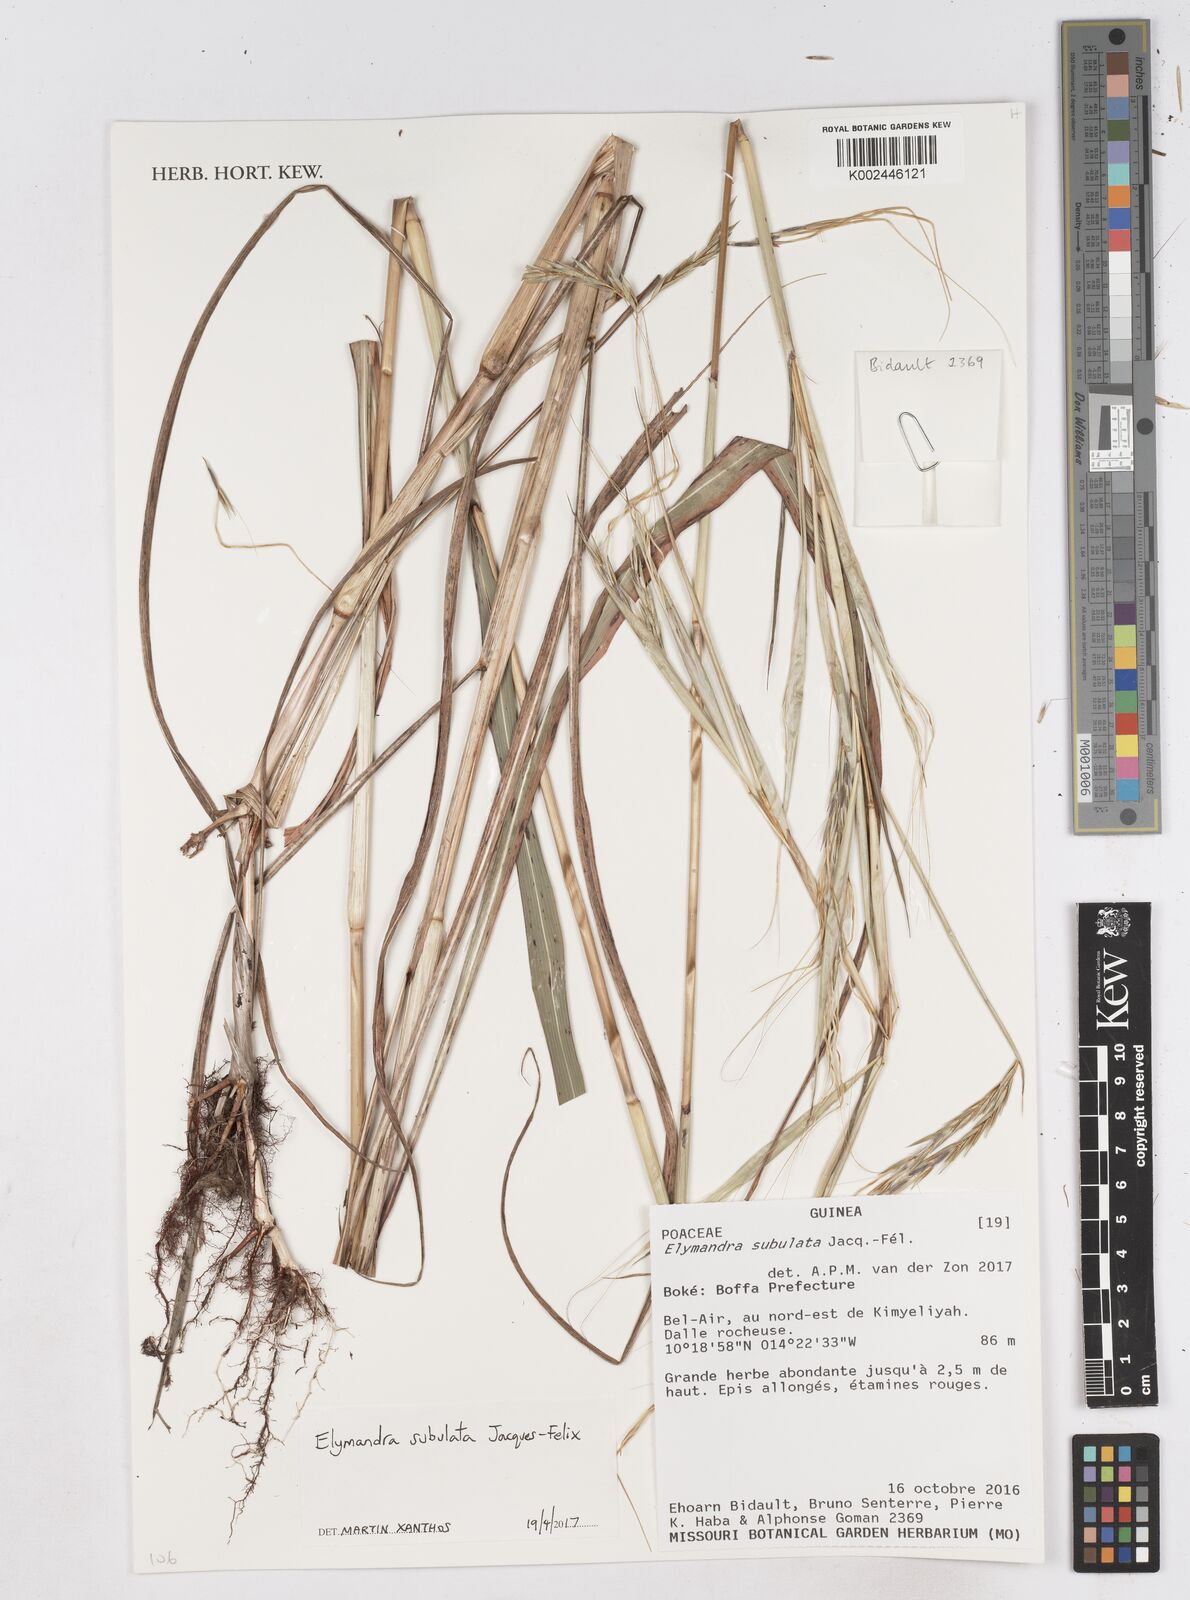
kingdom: Plantae
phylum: Tracheophyta
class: Liliopsida
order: Poales
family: Poaceae
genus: Elymandra
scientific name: Elymandra subulata
